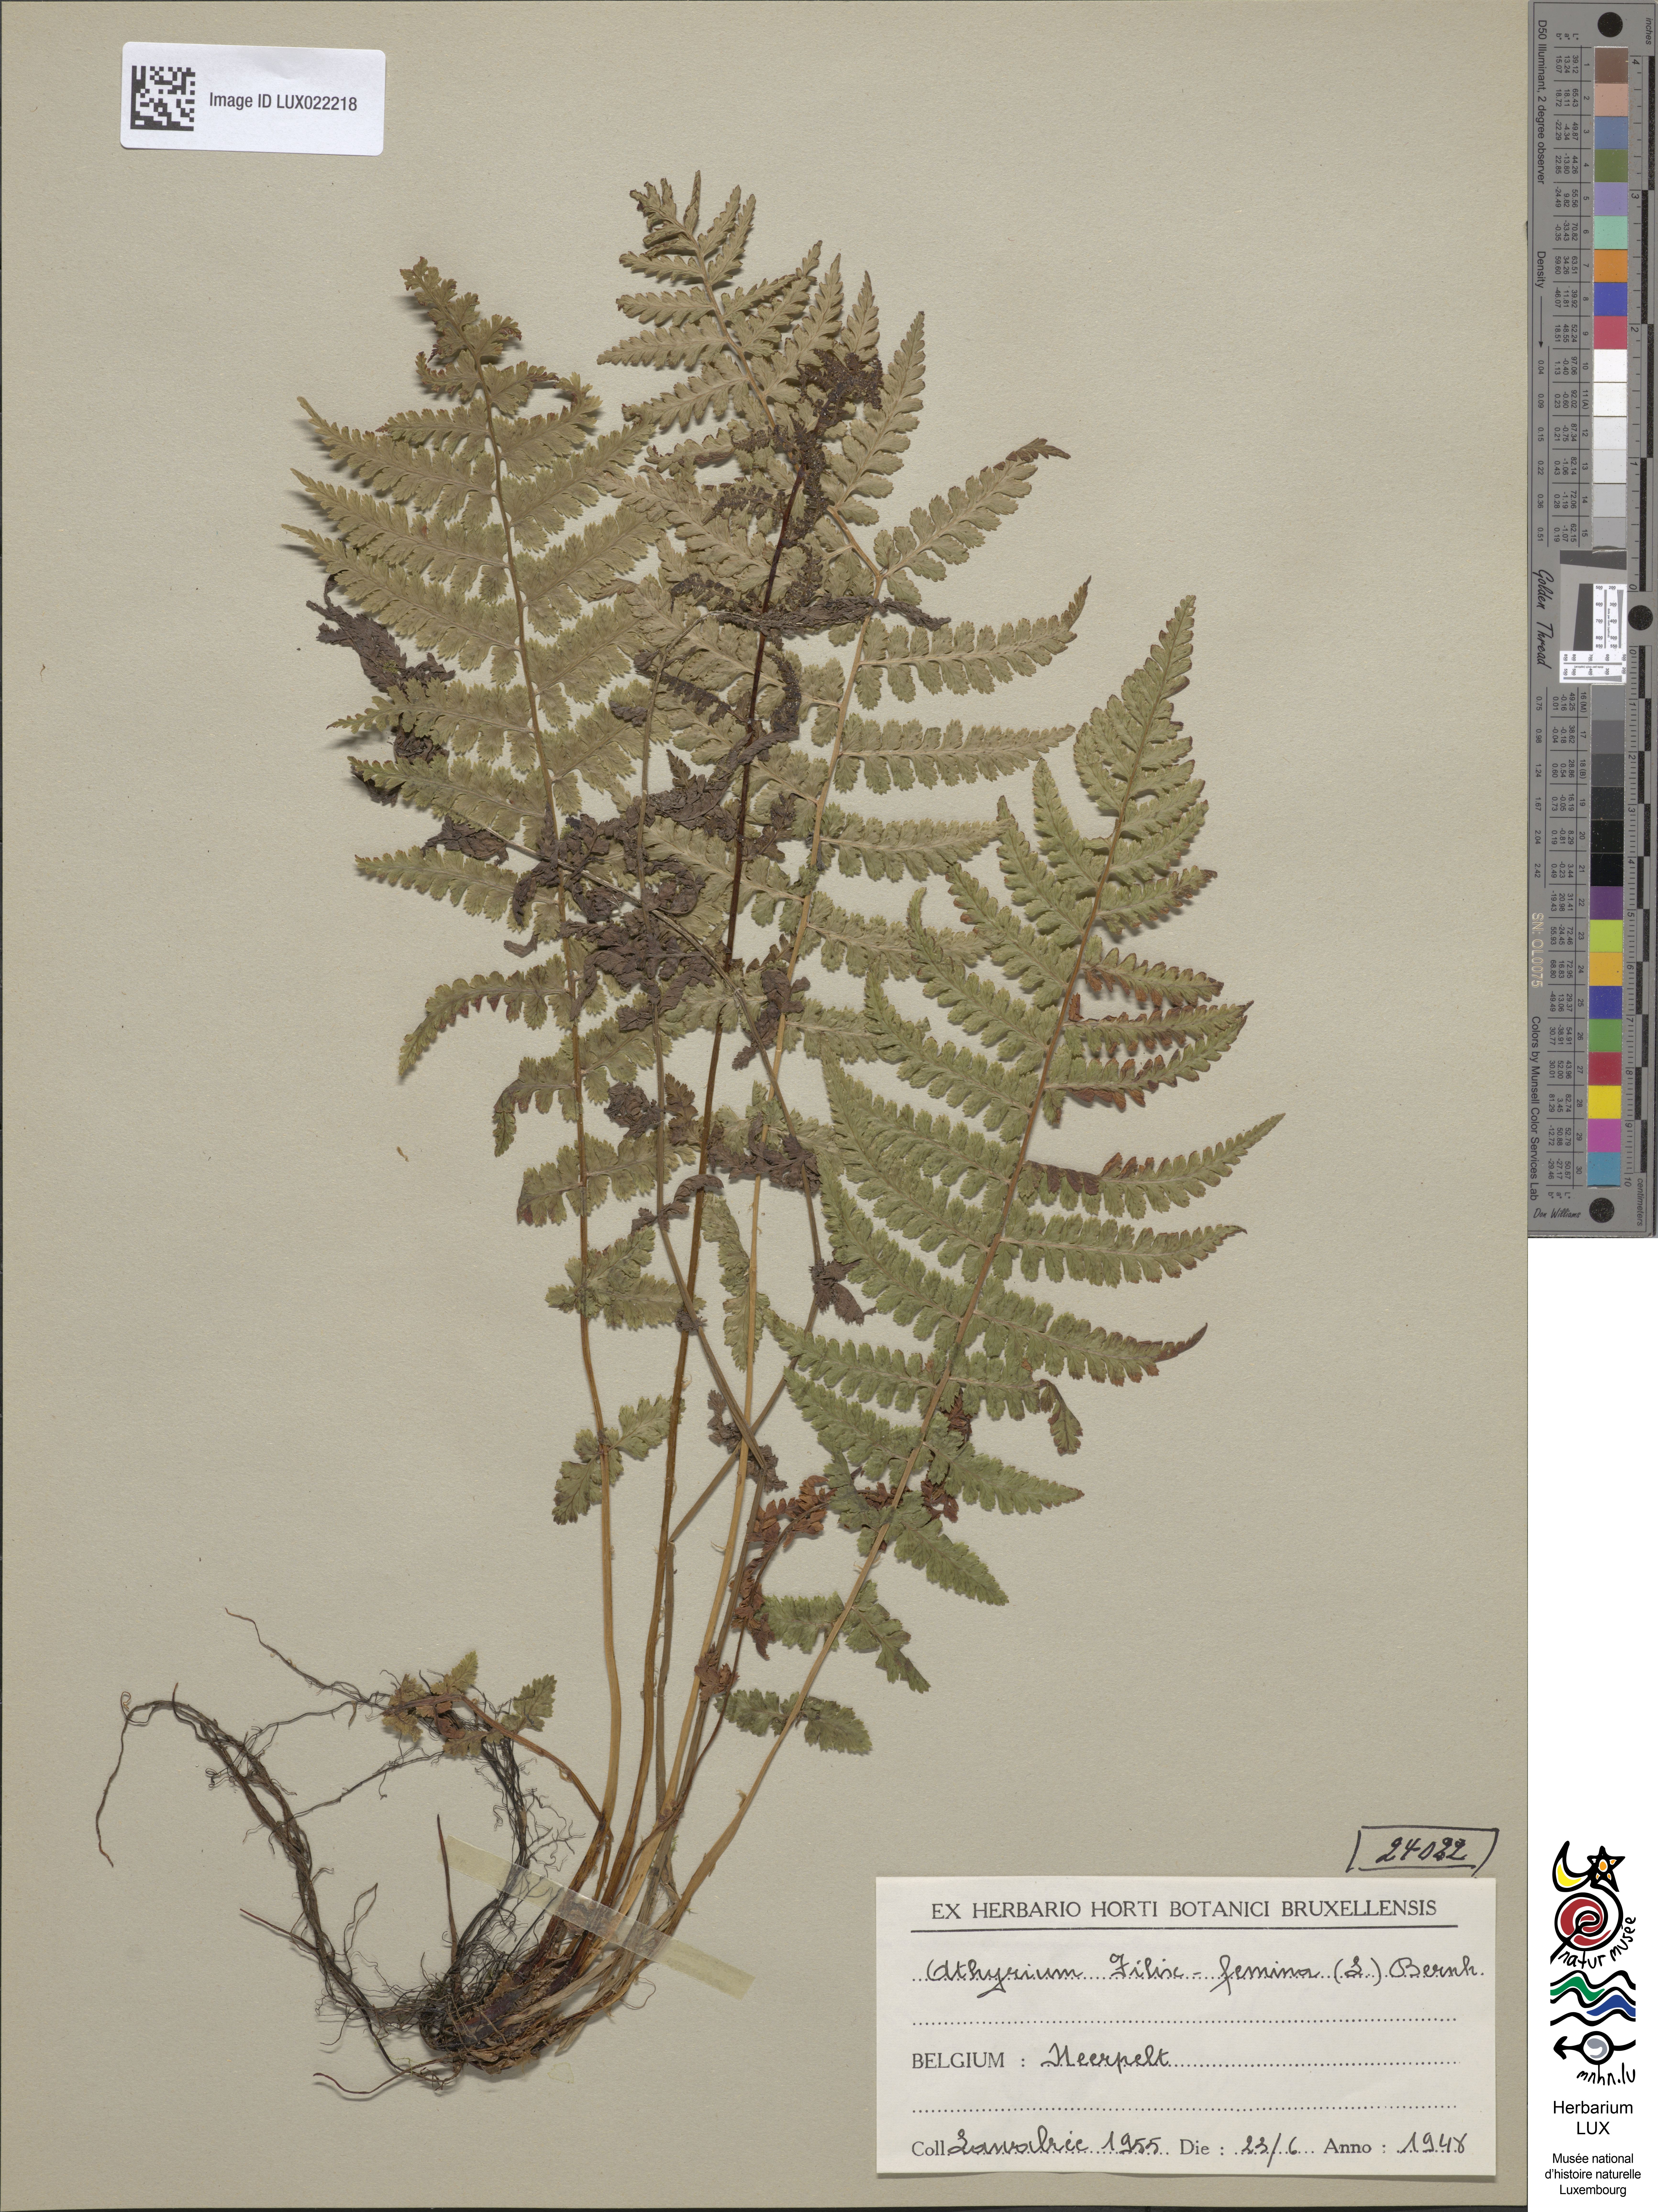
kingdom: Plantae
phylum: Tracheophyta
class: Polypodiopsida
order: Polypodiales
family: Athyriaceae
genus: Athyrium
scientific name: Athyrium filix-femina
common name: Lady fern
